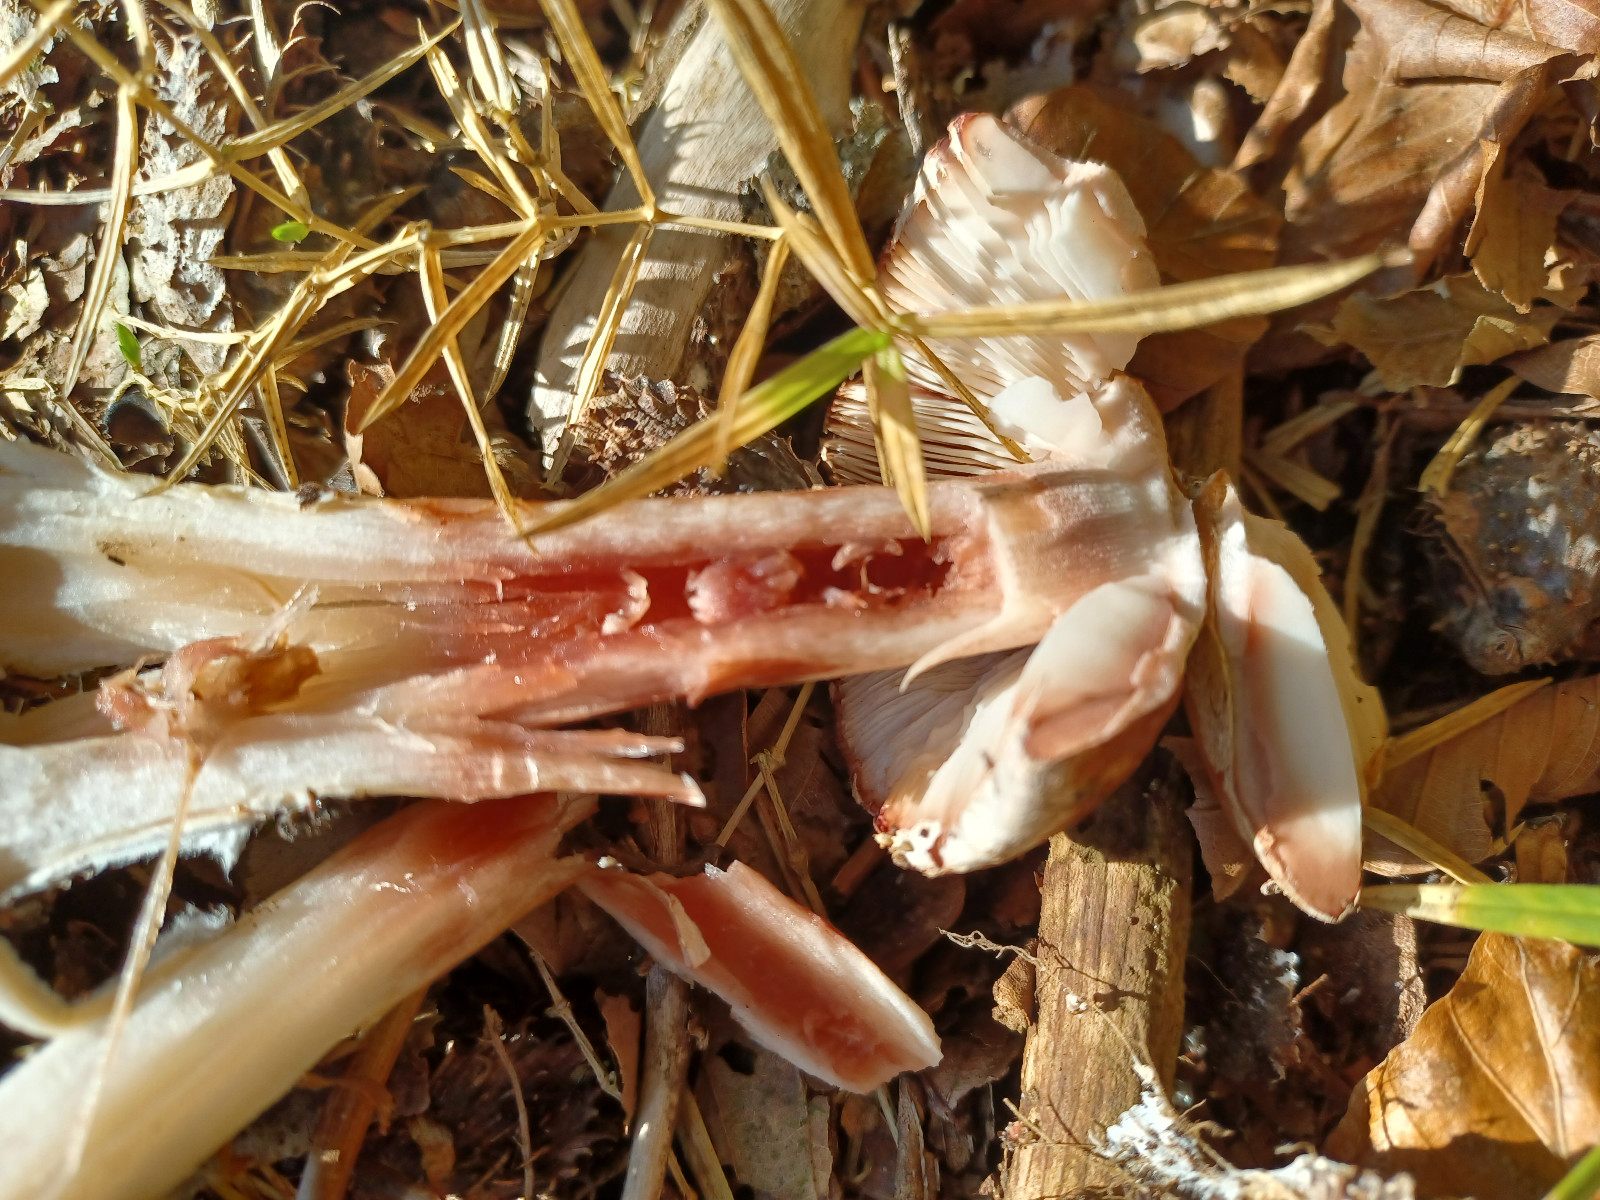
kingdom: Fungi
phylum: Basidiomycota
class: Agaricomycetes
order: Agaricales
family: Amanitaceae
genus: Amanita
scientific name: Amanita rubescens
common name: rødmende fluesvamp
